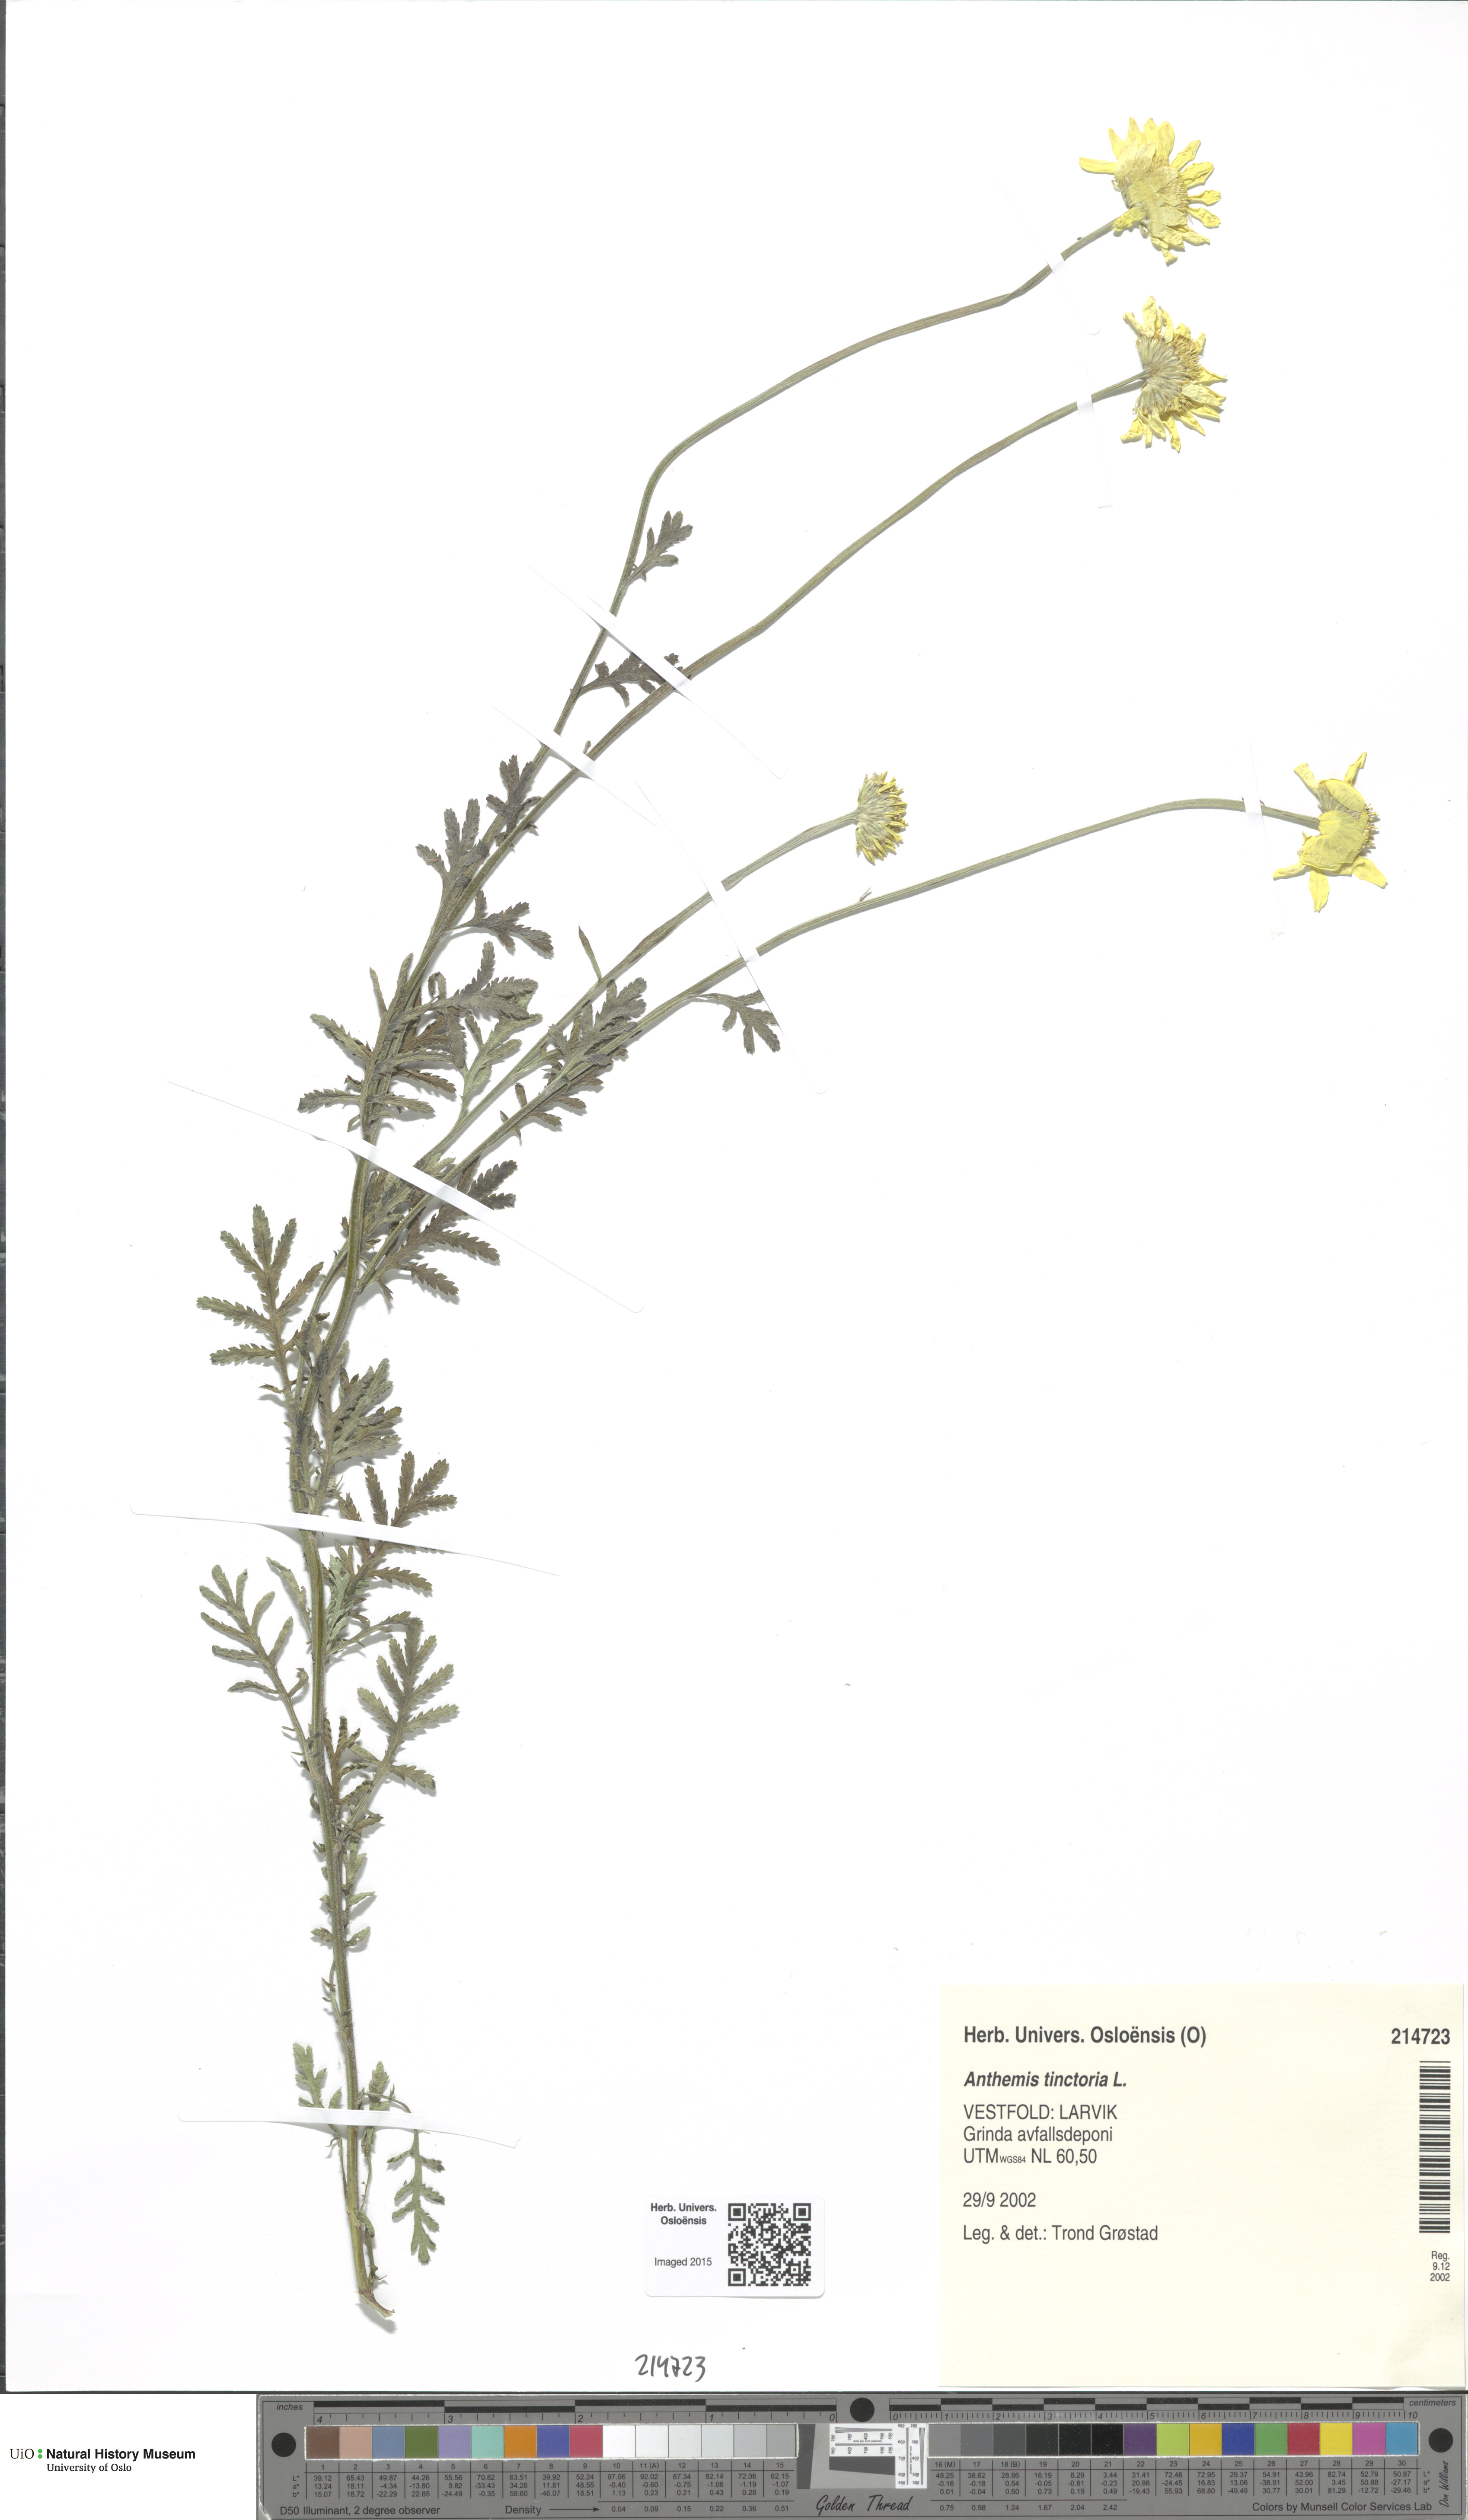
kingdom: Plantae
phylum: Tracheophyta
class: Magnoliopsida
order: Asterales
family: Asteraceae
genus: Cota
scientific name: Cota tinctoria
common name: Golden chamomile
